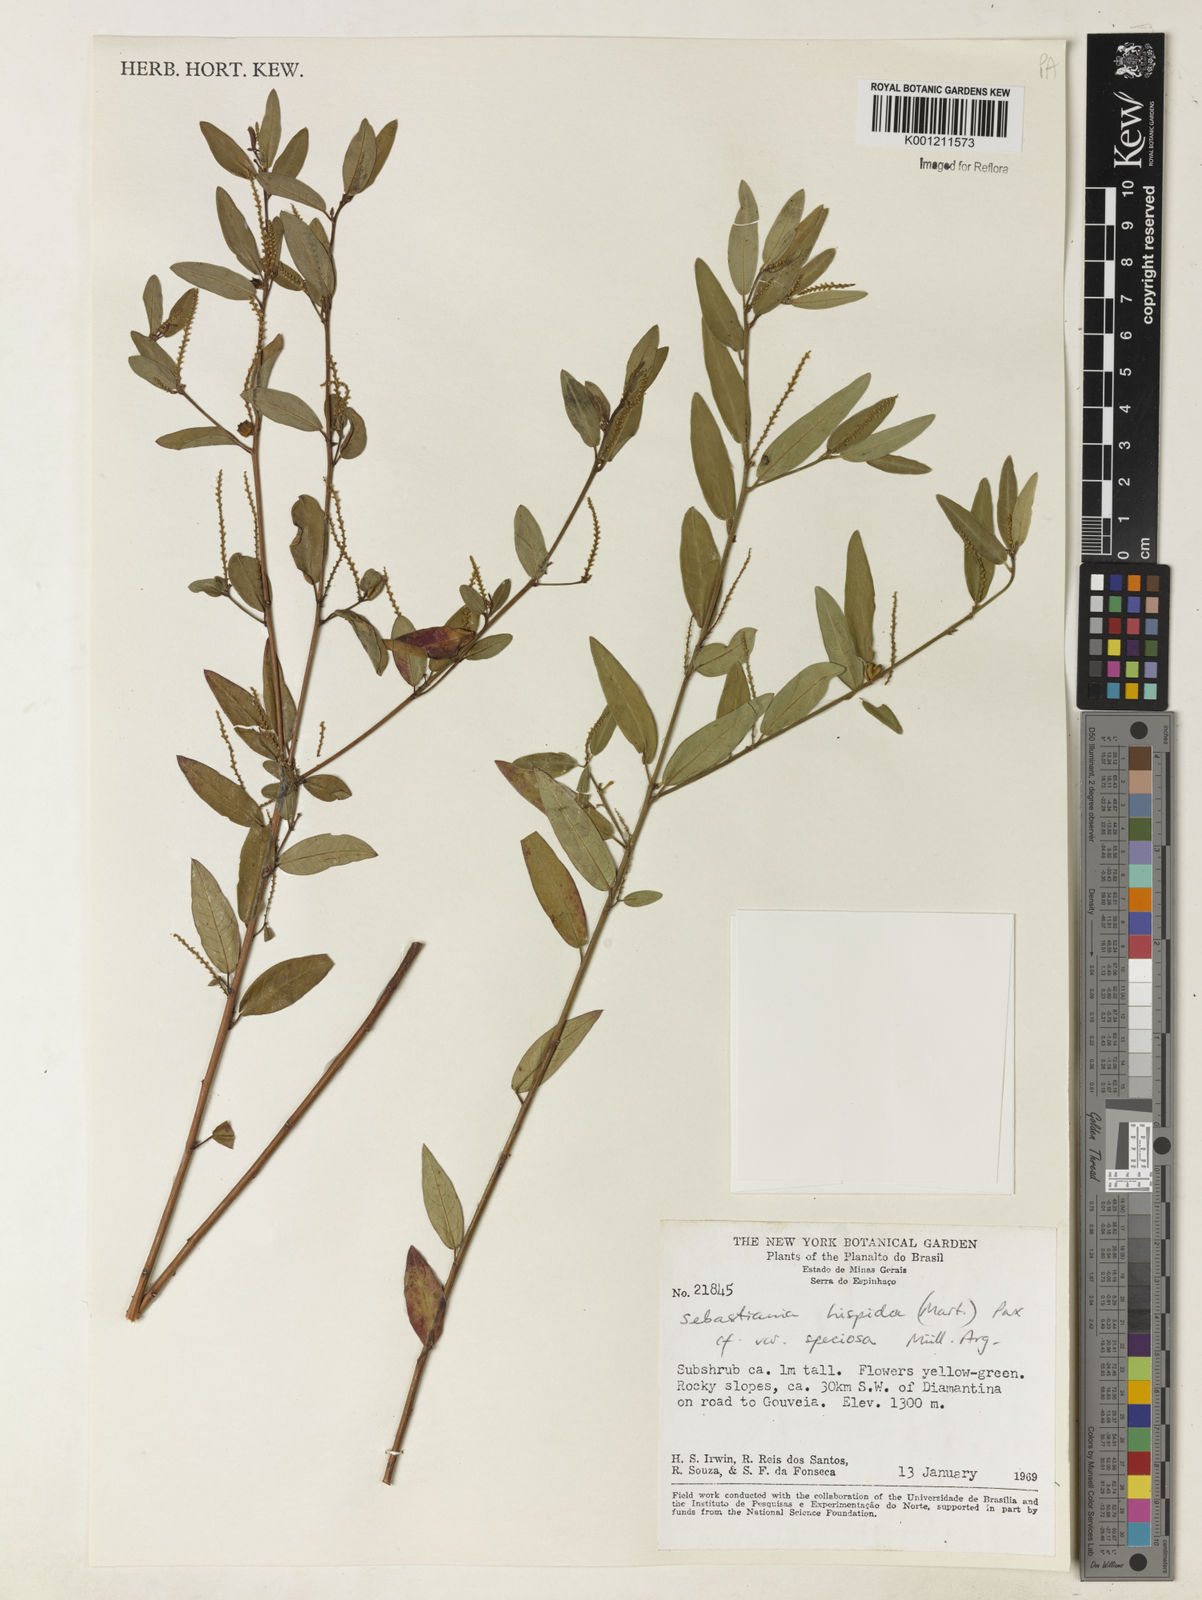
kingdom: Plantae
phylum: Tracheophyta
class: Magnoliopsida
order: Malpighiales
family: Euphorbiaceae
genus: Microstachys
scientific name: Microstachys hispida
